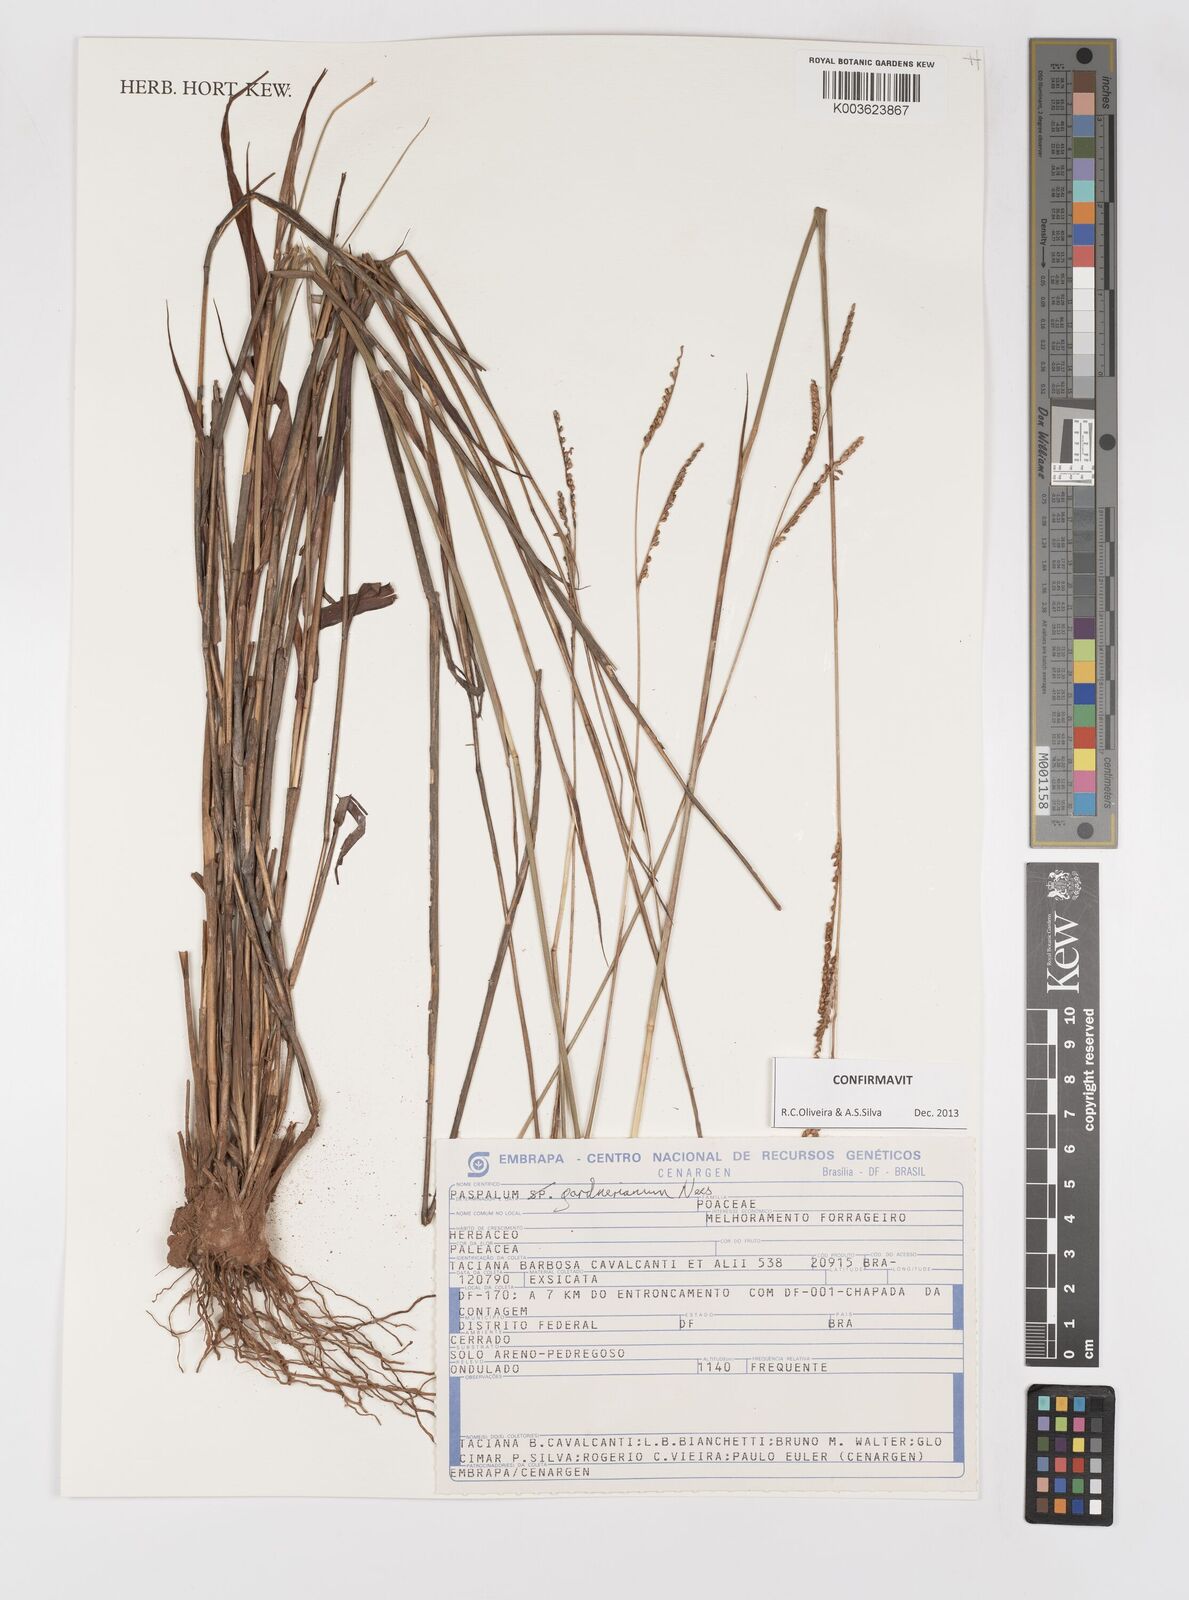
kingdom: Plantae
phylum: Tracheophyta
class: Liliopsida
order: Poales
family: Poaceae
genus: Paspalum
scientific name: Paspalum gardnerianum
